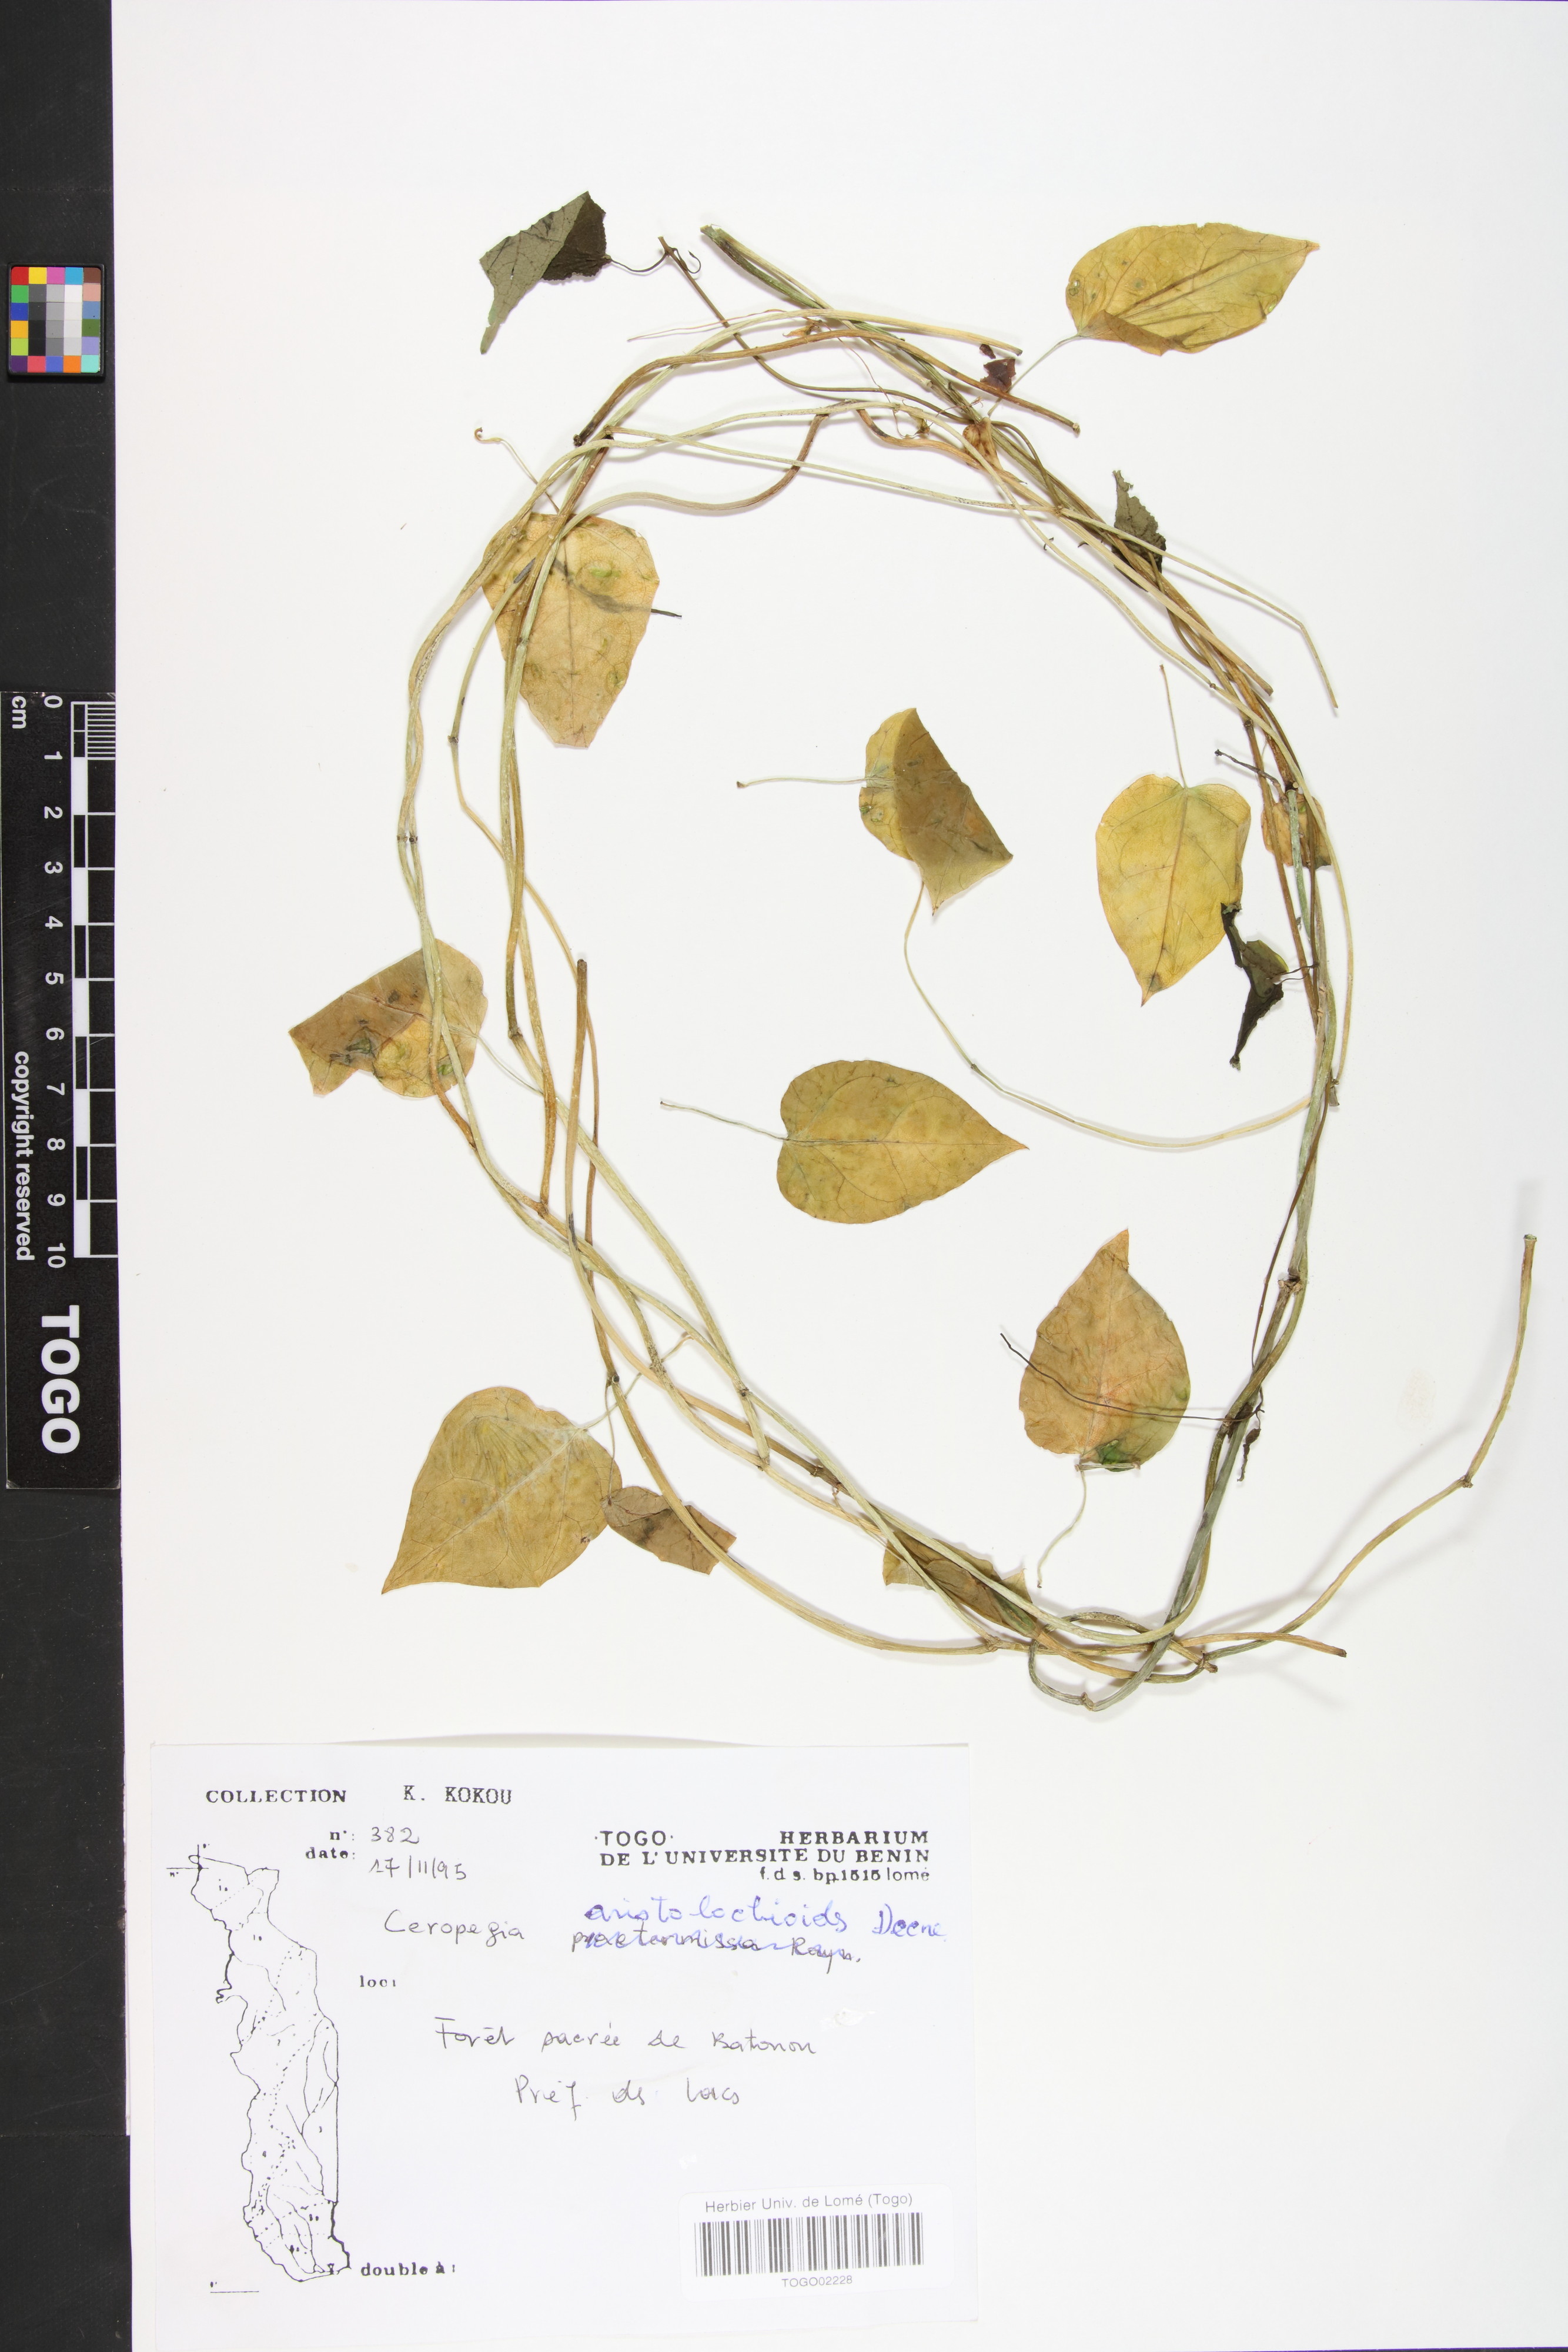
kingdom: Plantae
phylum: Tracheophyta
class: Magnoliopsida
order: Gentianales
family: Apocynaceae
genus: Ceropegia
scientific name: Ceropegia aristolochioides
